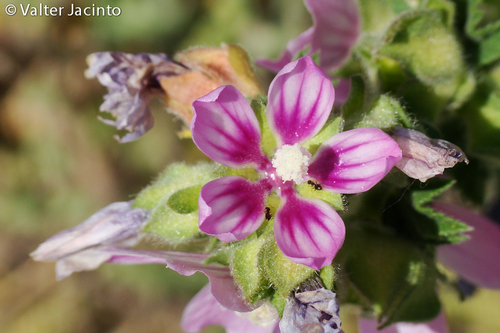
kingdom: Plantae
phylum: Tracheophyta
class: Magnoliopsida
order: Malvales
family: Malvaceae
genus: Malva
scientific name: Malva durieui
